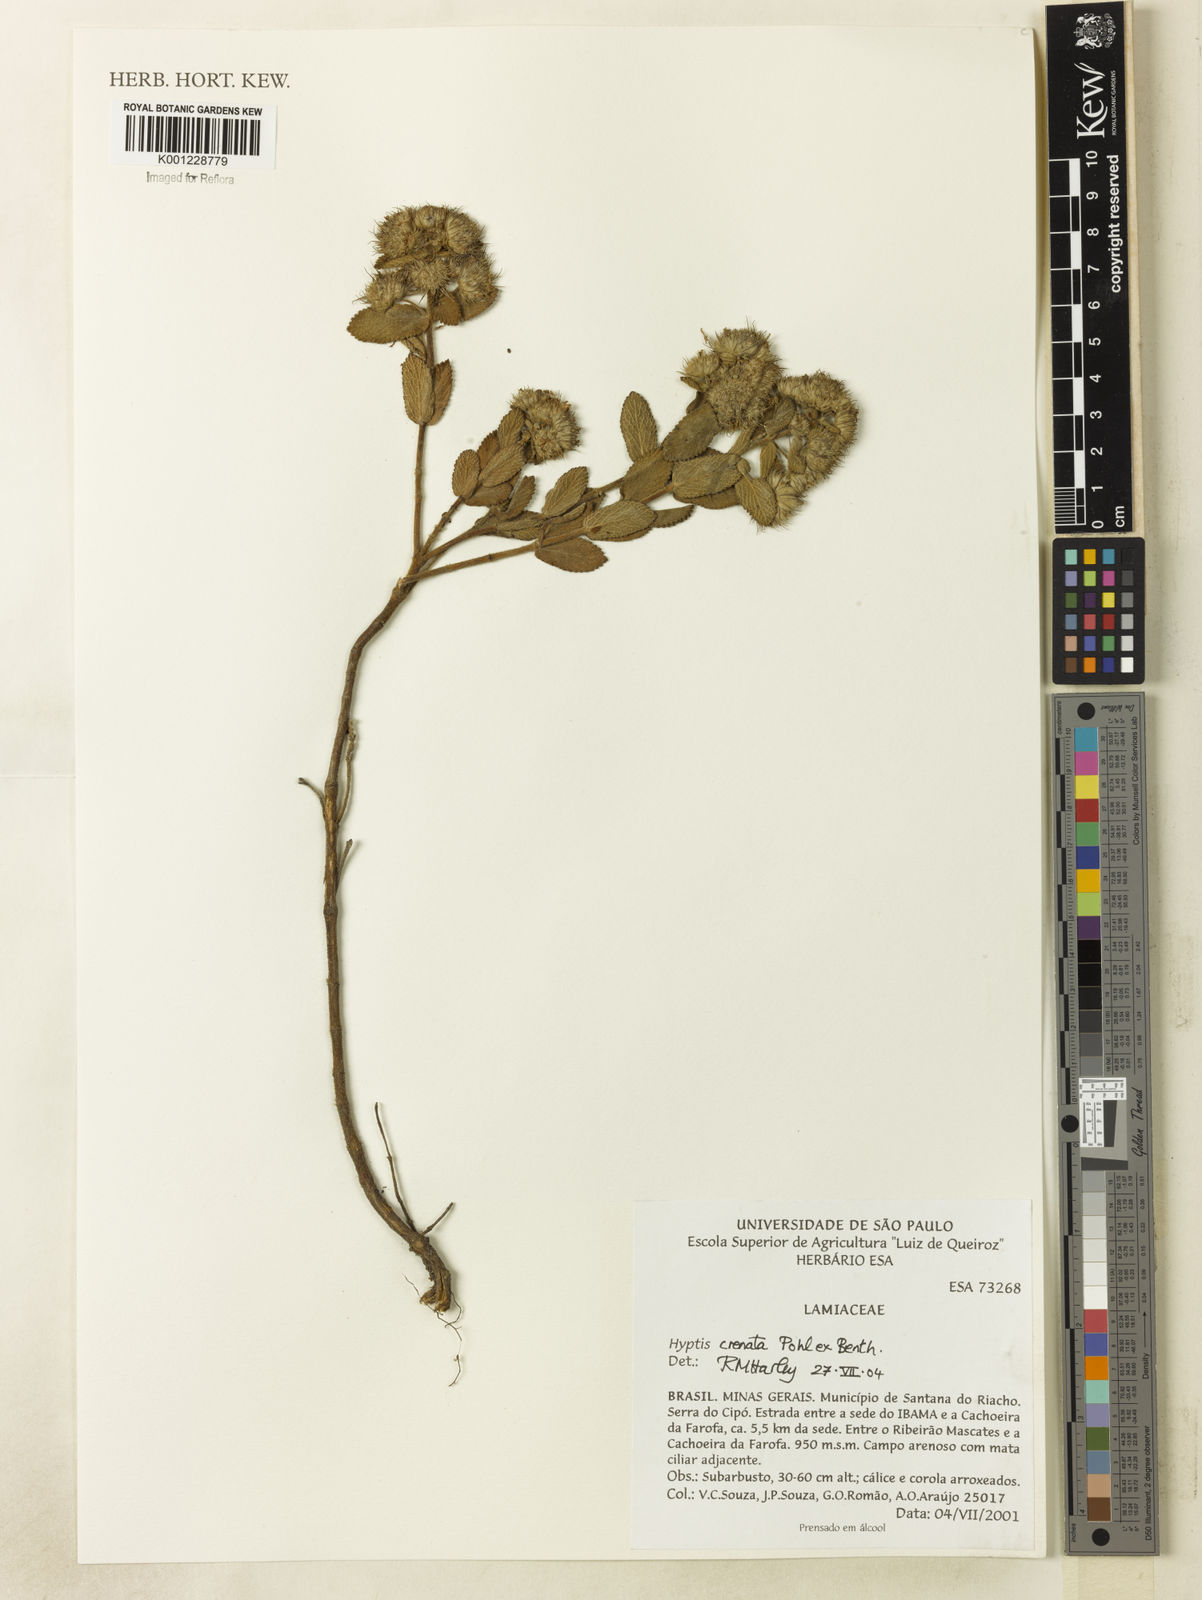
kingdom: Plantae
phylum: Tracheophyta
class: Magnoliopsida
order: Lamiales
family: Lamiaceae
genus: Hyptis
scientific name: Hyptis crenata
